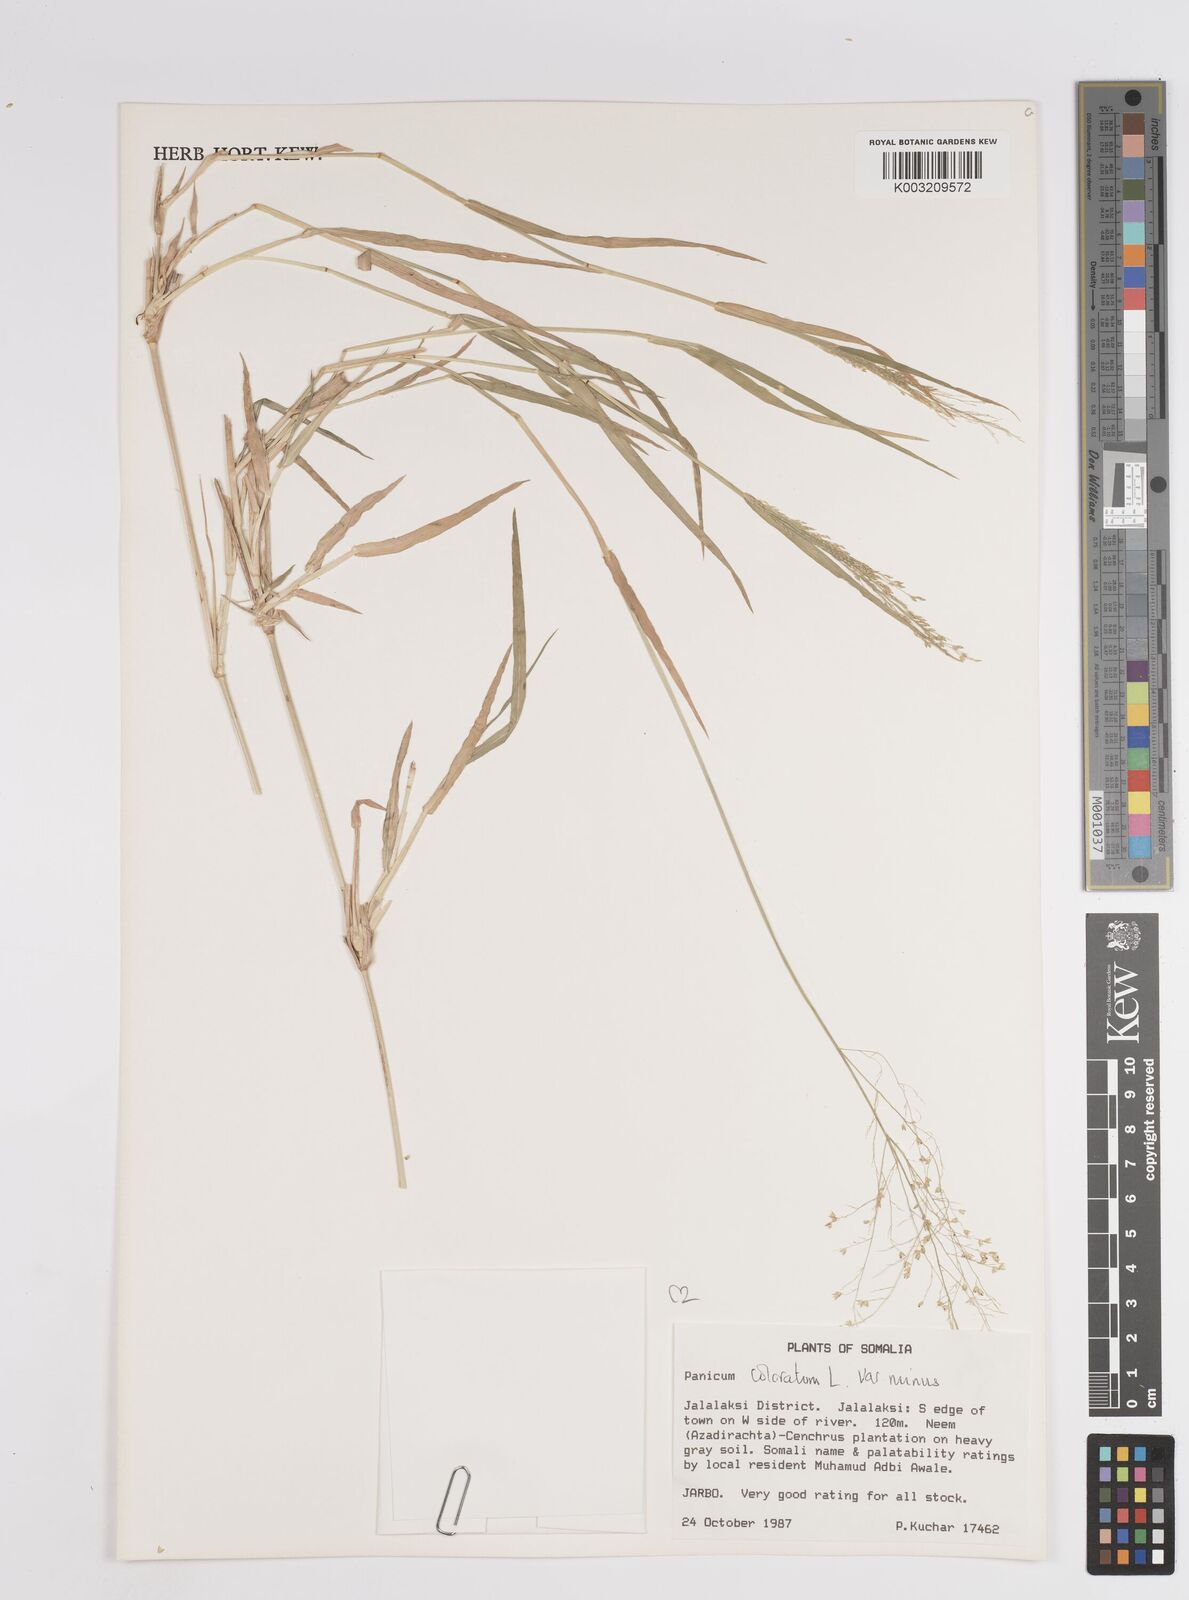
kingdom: Plantae
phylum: Tracheophyta
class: Liliopsida
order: Poales
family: Poaceae
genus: Panicum
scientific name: Panicum coloratum
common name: Kleingrass
